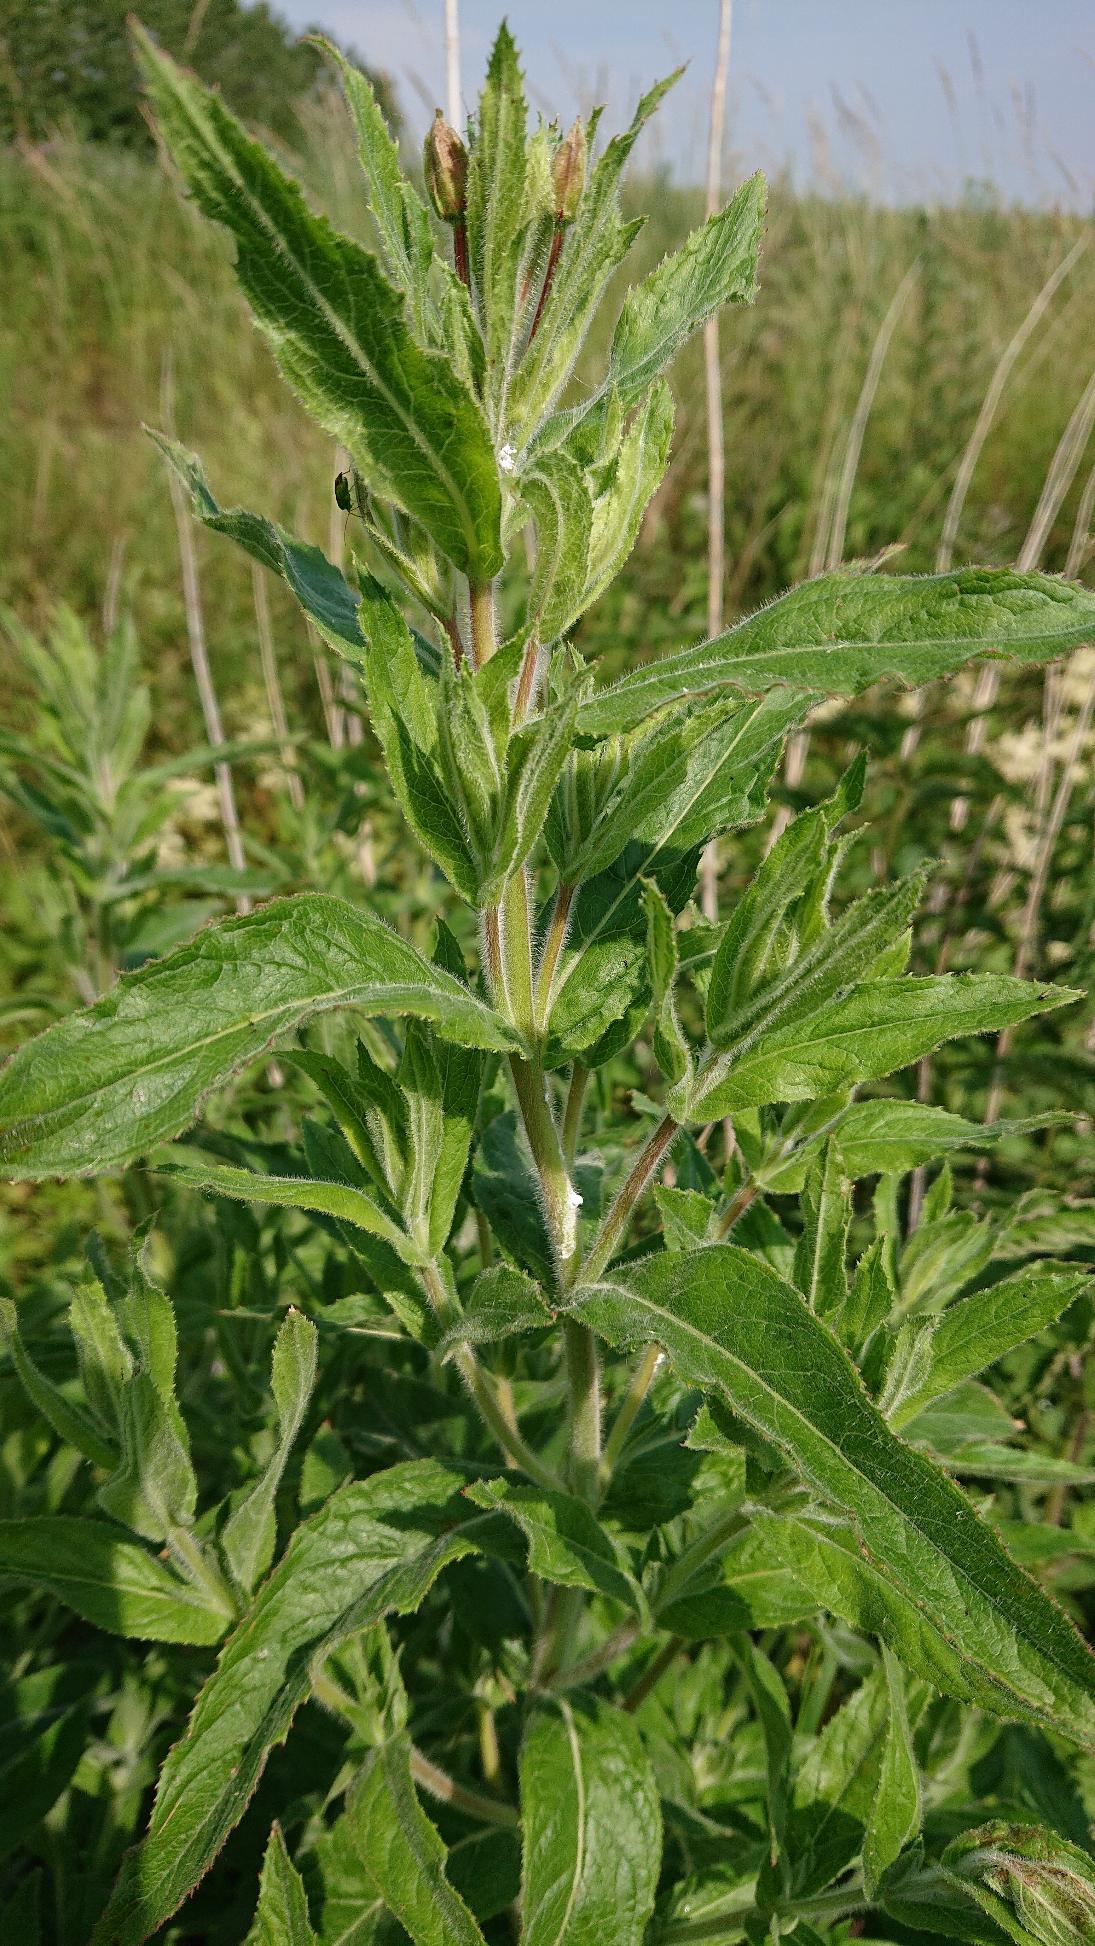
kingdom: Plantae
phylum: Tracheophyta
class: Magnoliopsida
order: Myrtales
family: Onagraceae
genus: Epilobium
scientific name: Epilobium hirsutum
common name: Lådden dueurt
